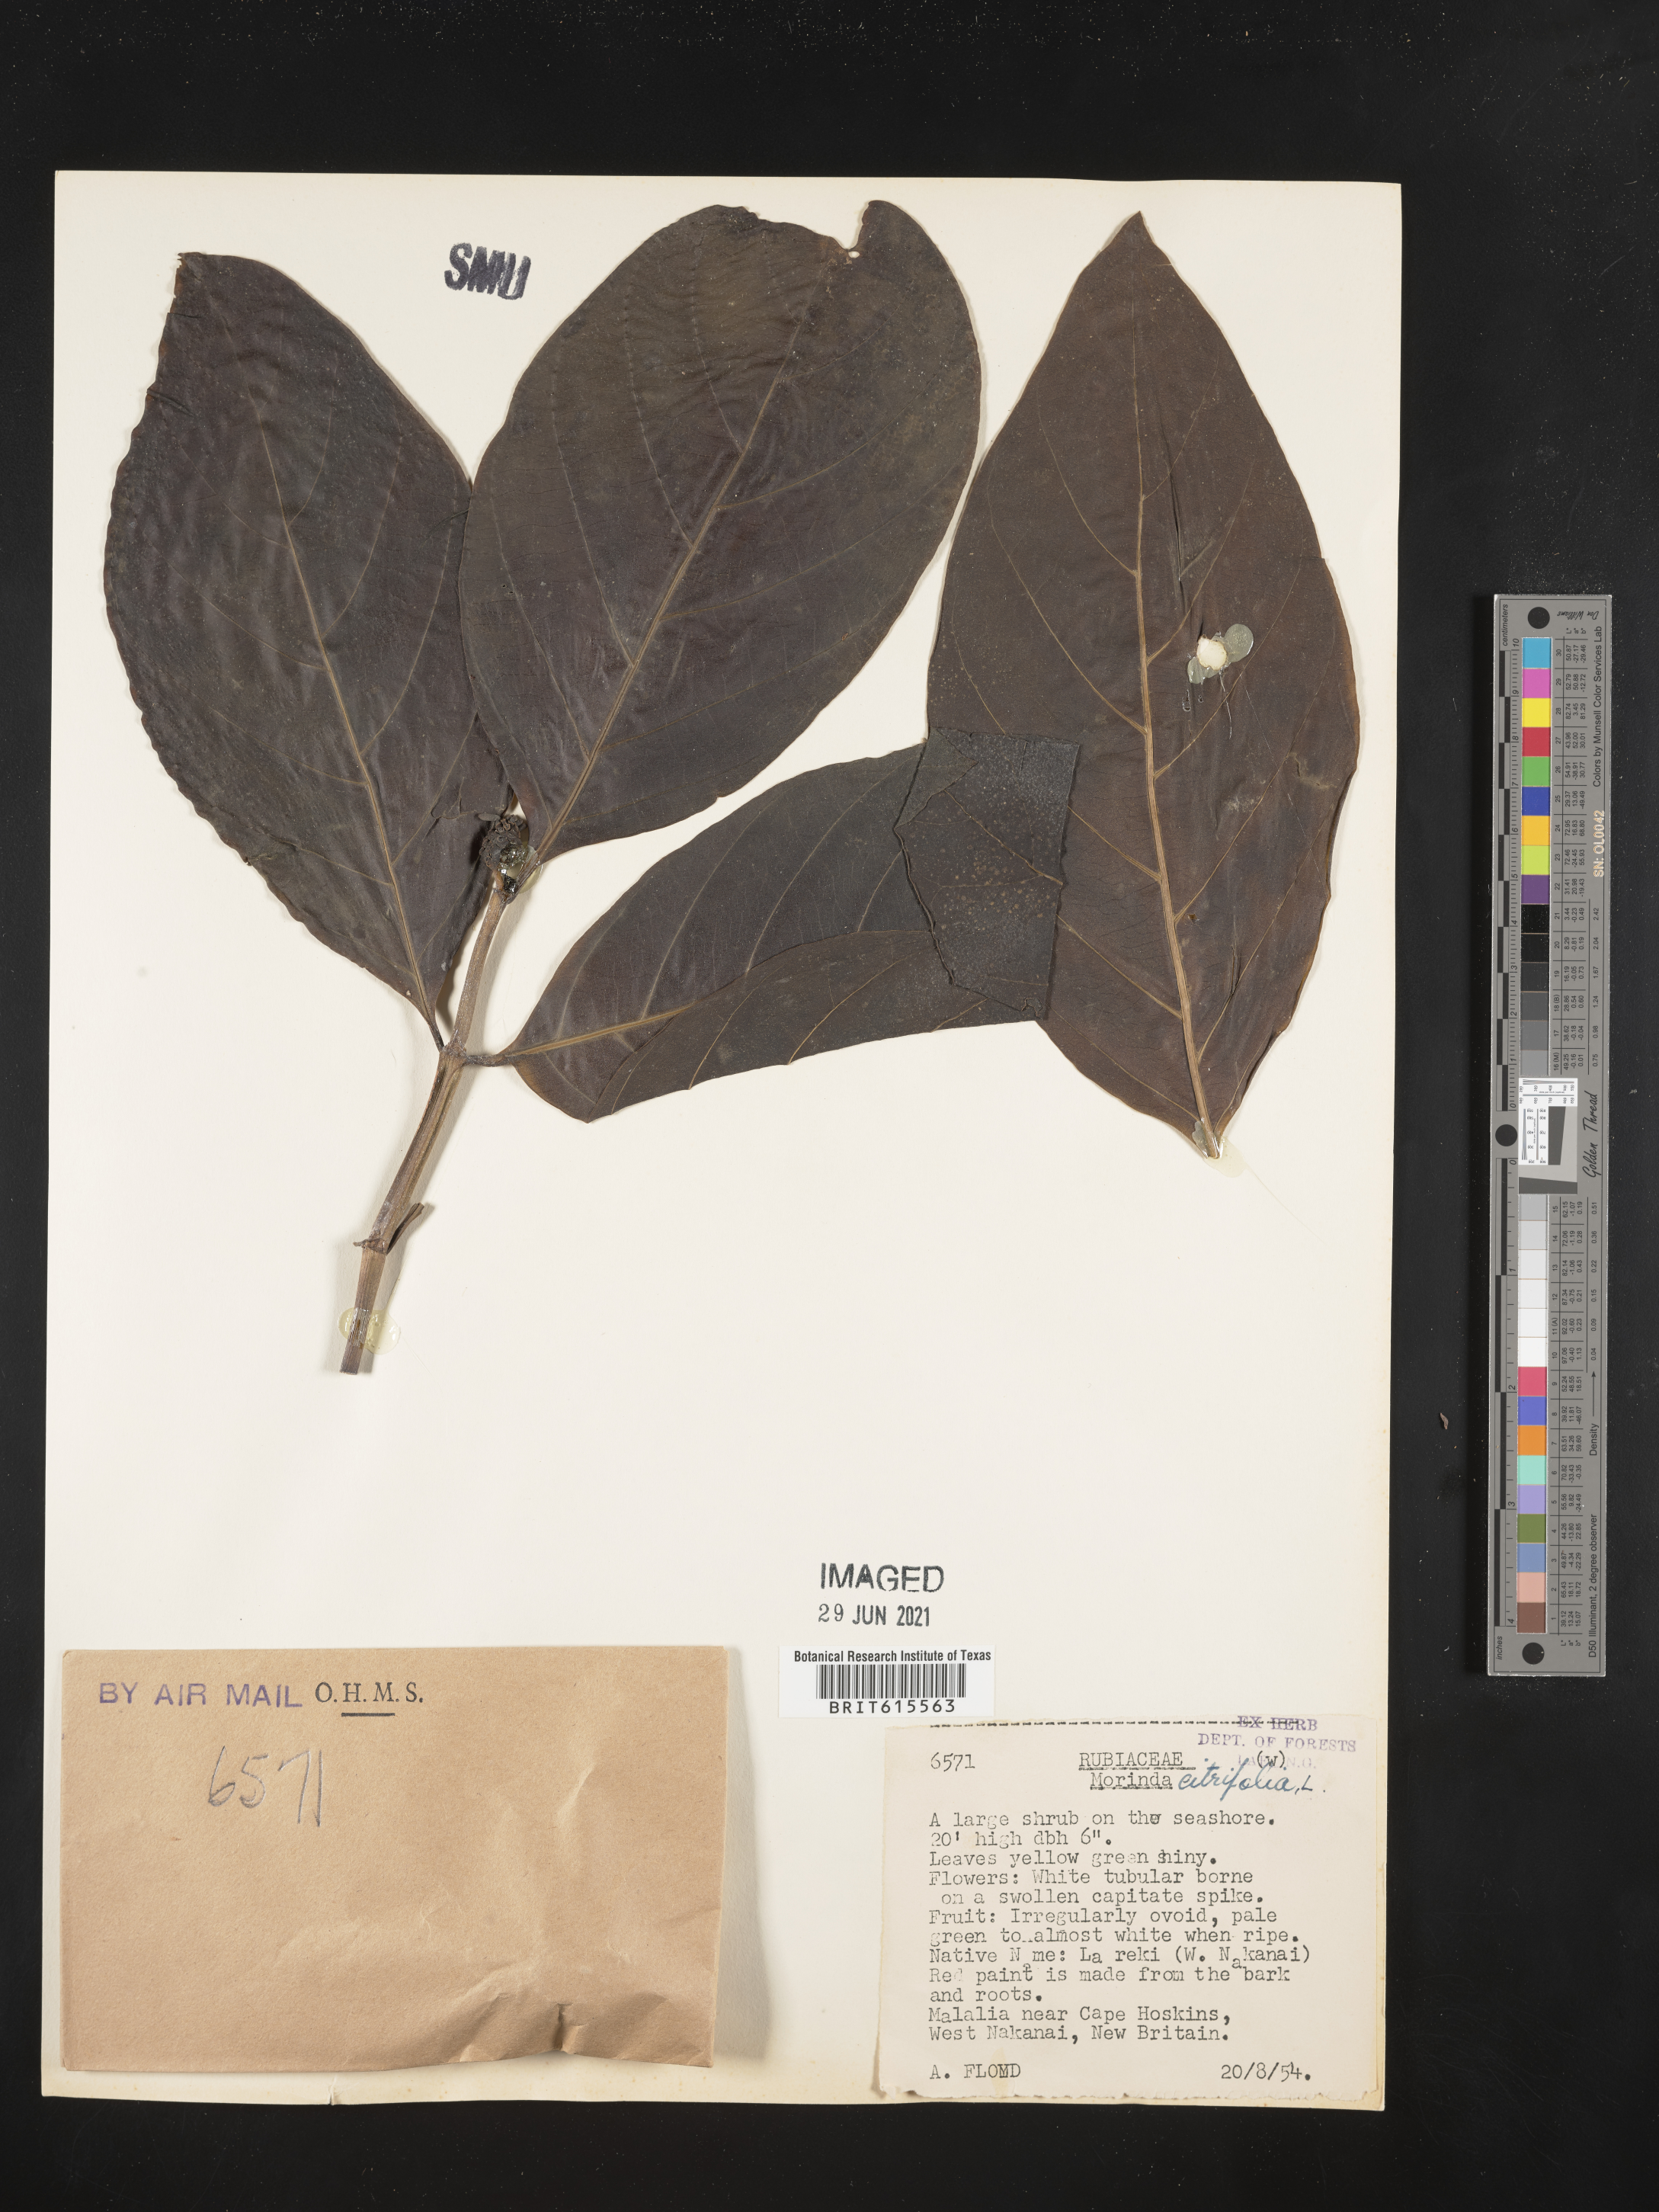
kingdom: Plantae
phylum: Tracheophyta
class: Magnoliopsida
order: Gentianales
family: Rubiaceae
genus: Morinda
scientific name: Morinda citrifolia
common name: Indian-mulberry
